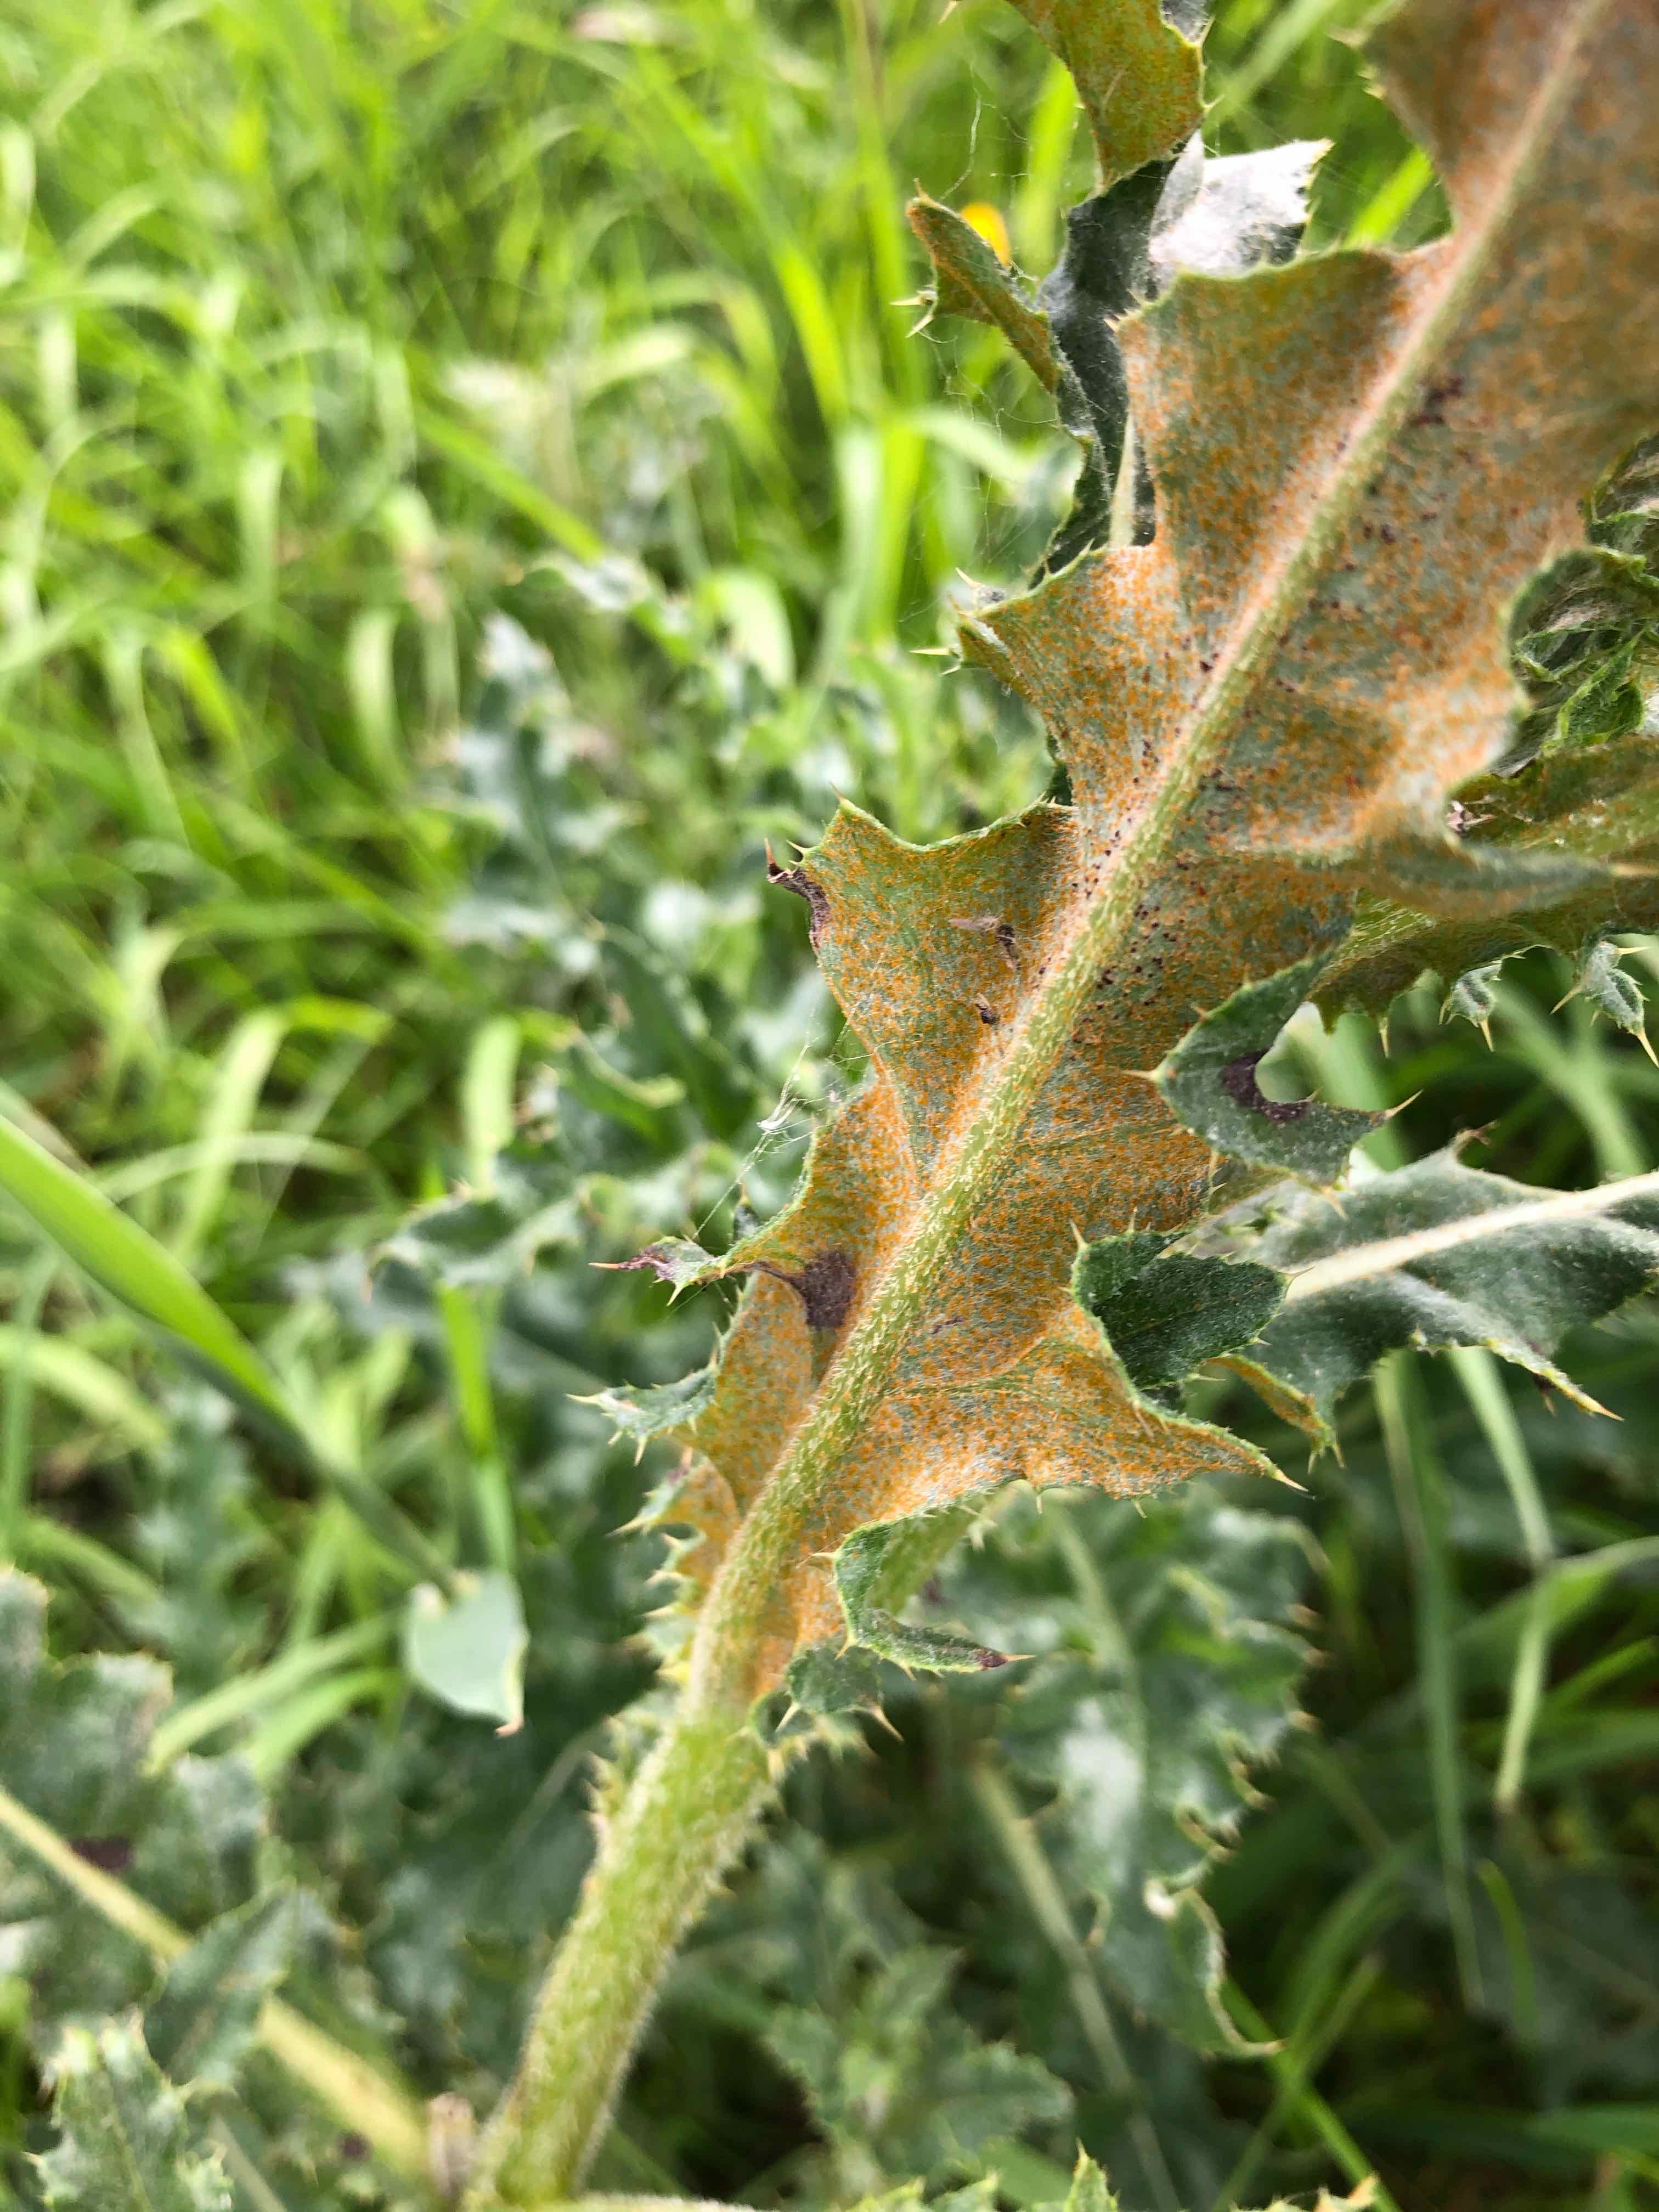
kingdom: Fungi
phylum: Basidiomycota
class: Pucciniomycetes
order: Pucciniales
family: Pucciniaceae
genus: Puccinia
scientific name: Puccinia suaveolens
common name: tidsel-tvecellerust
